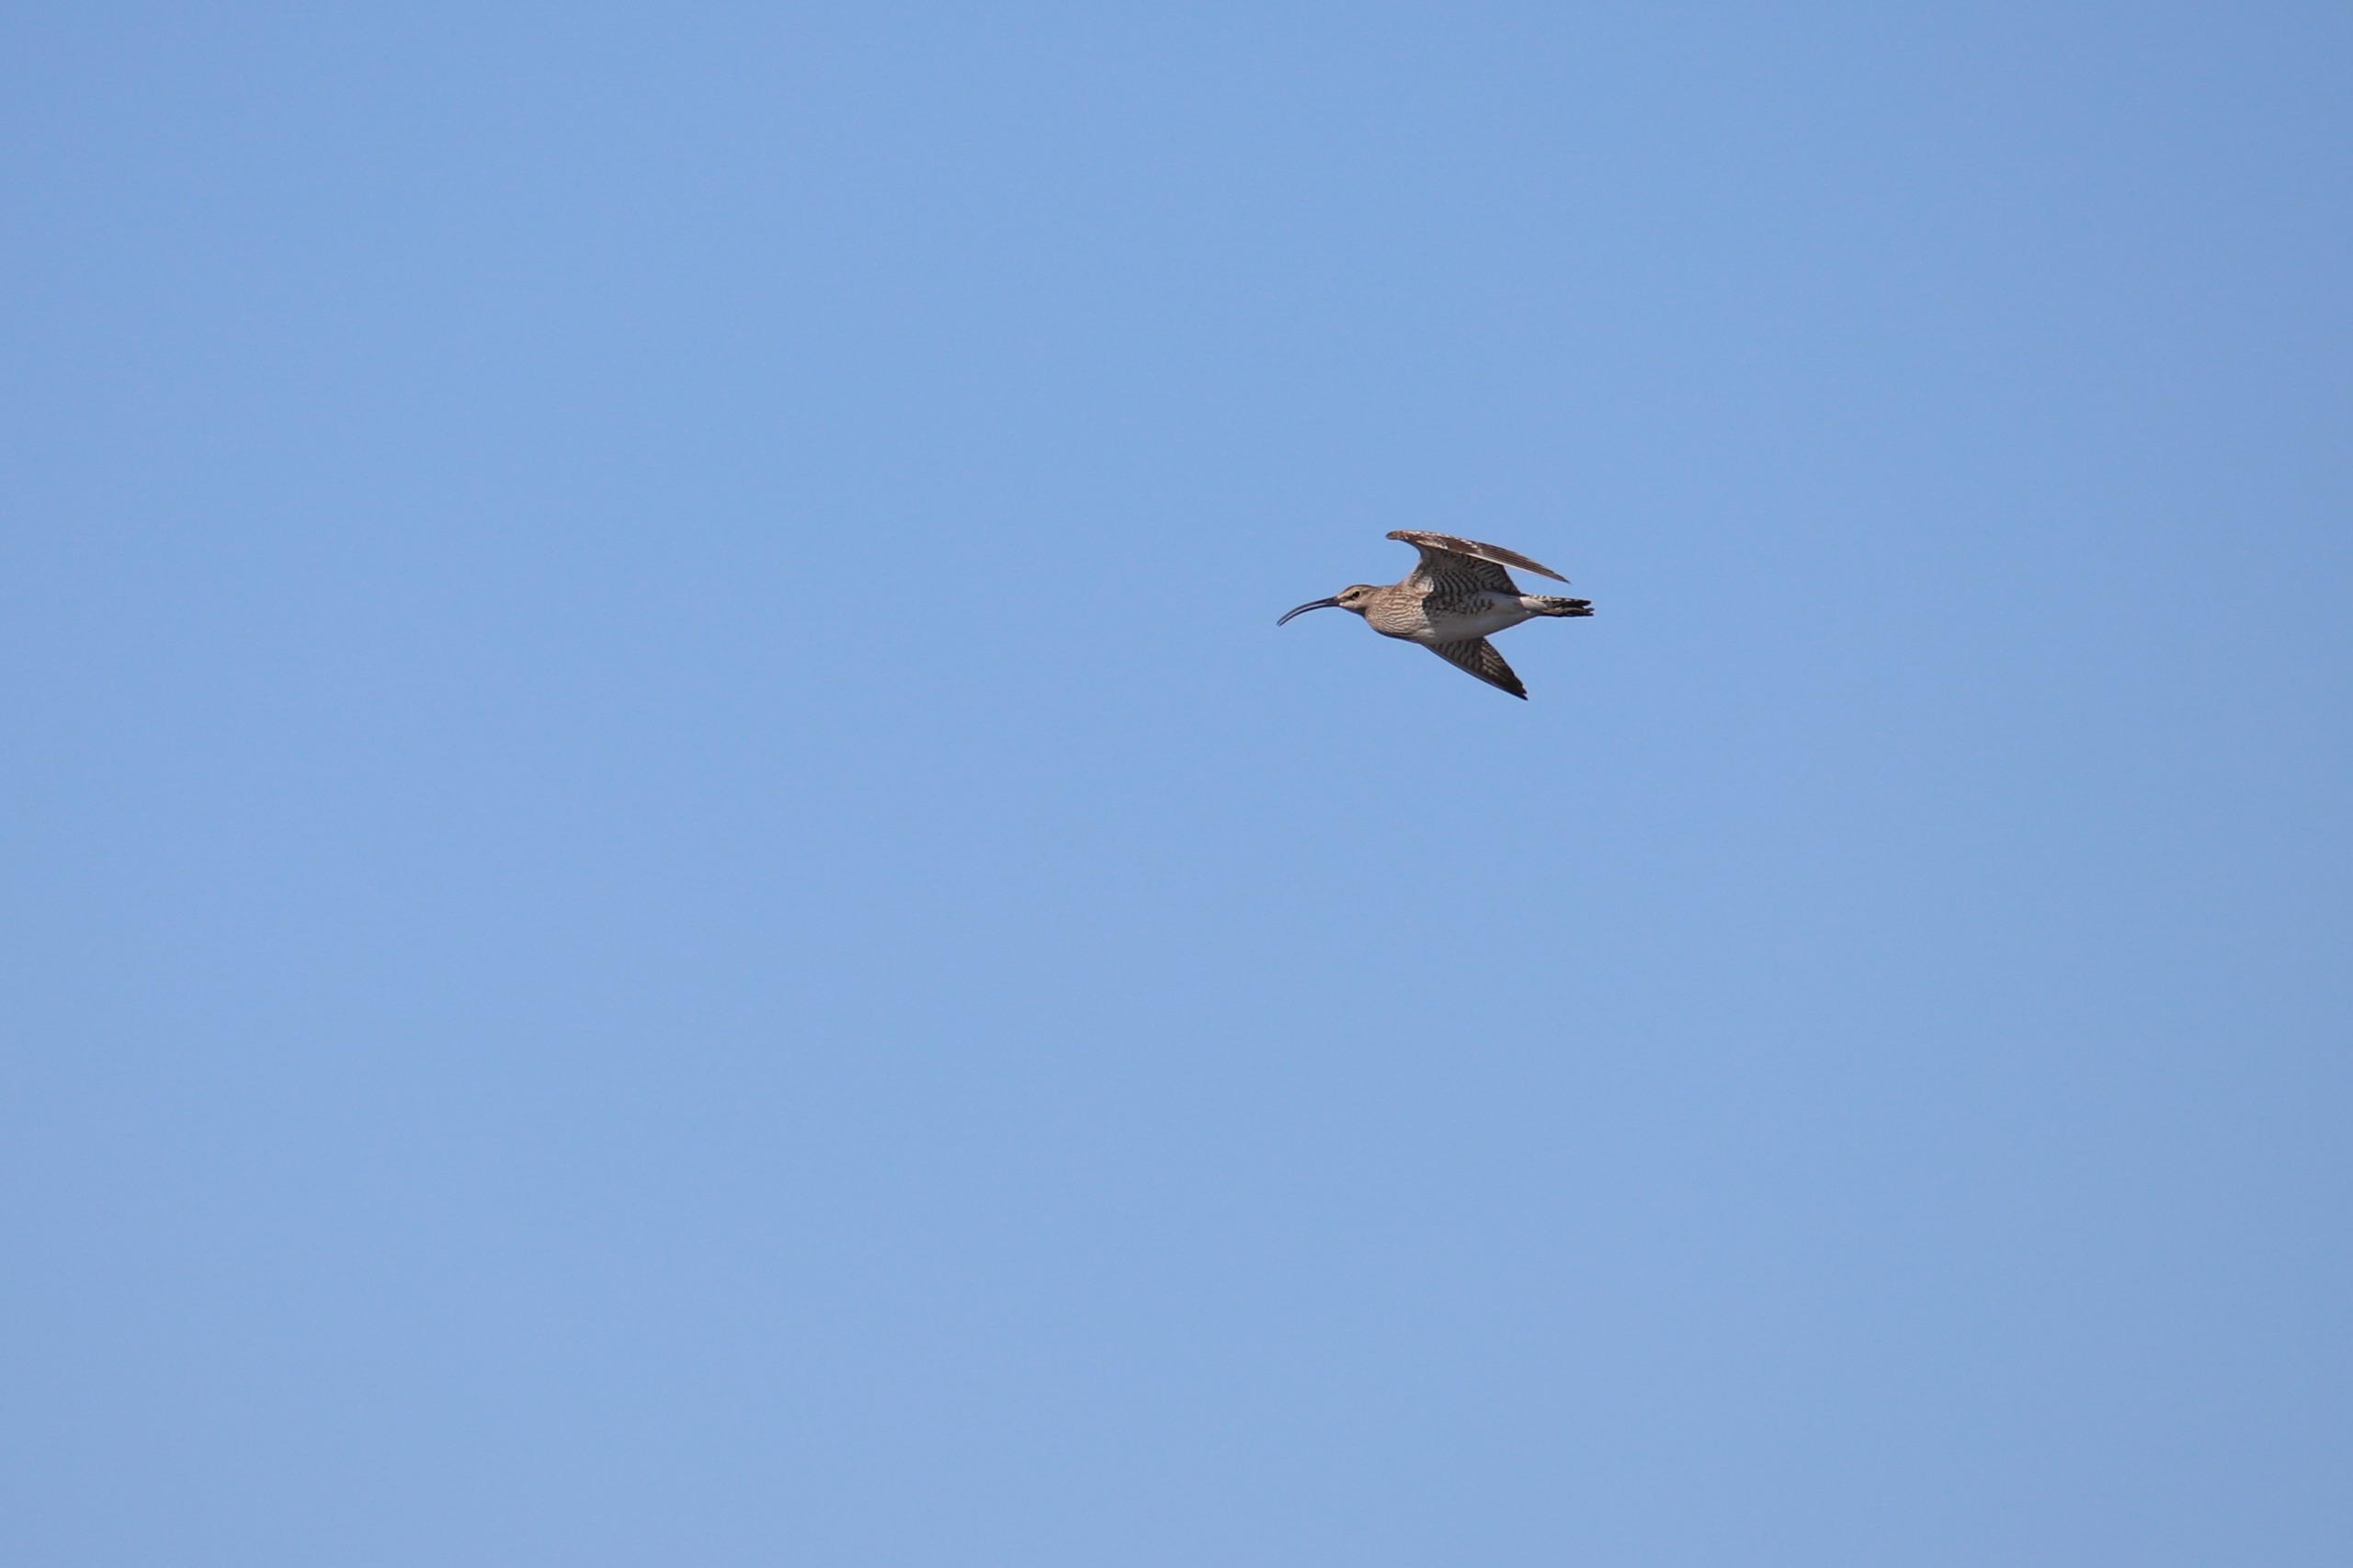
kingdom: Animalia
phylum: Chordata
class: Aves
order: Charadriiformes
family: Scolopacidae
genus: Numenius
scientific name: Numenius phaeopus
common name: Småspove
